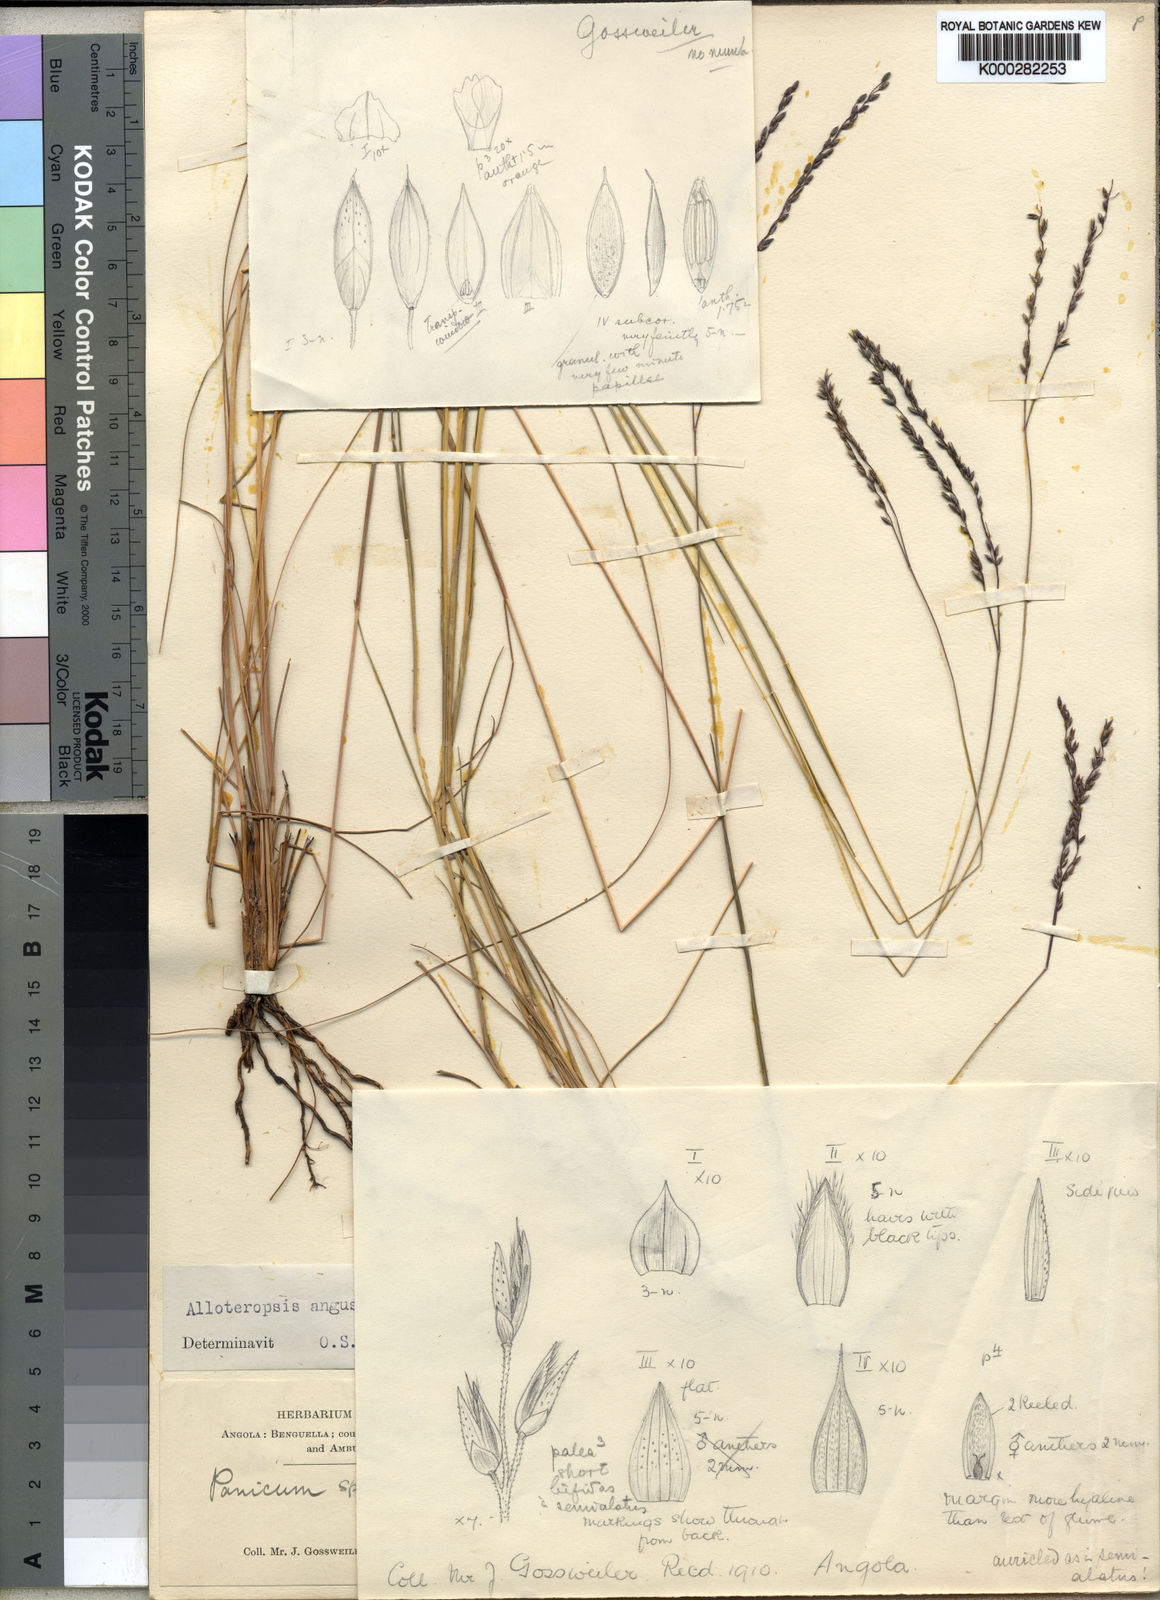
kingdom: Plantae
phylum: Tracheophyta
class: Liliopsida
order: Poales
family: Poaceae
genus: Alloteropsis
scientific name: Alloteropsis angusta
